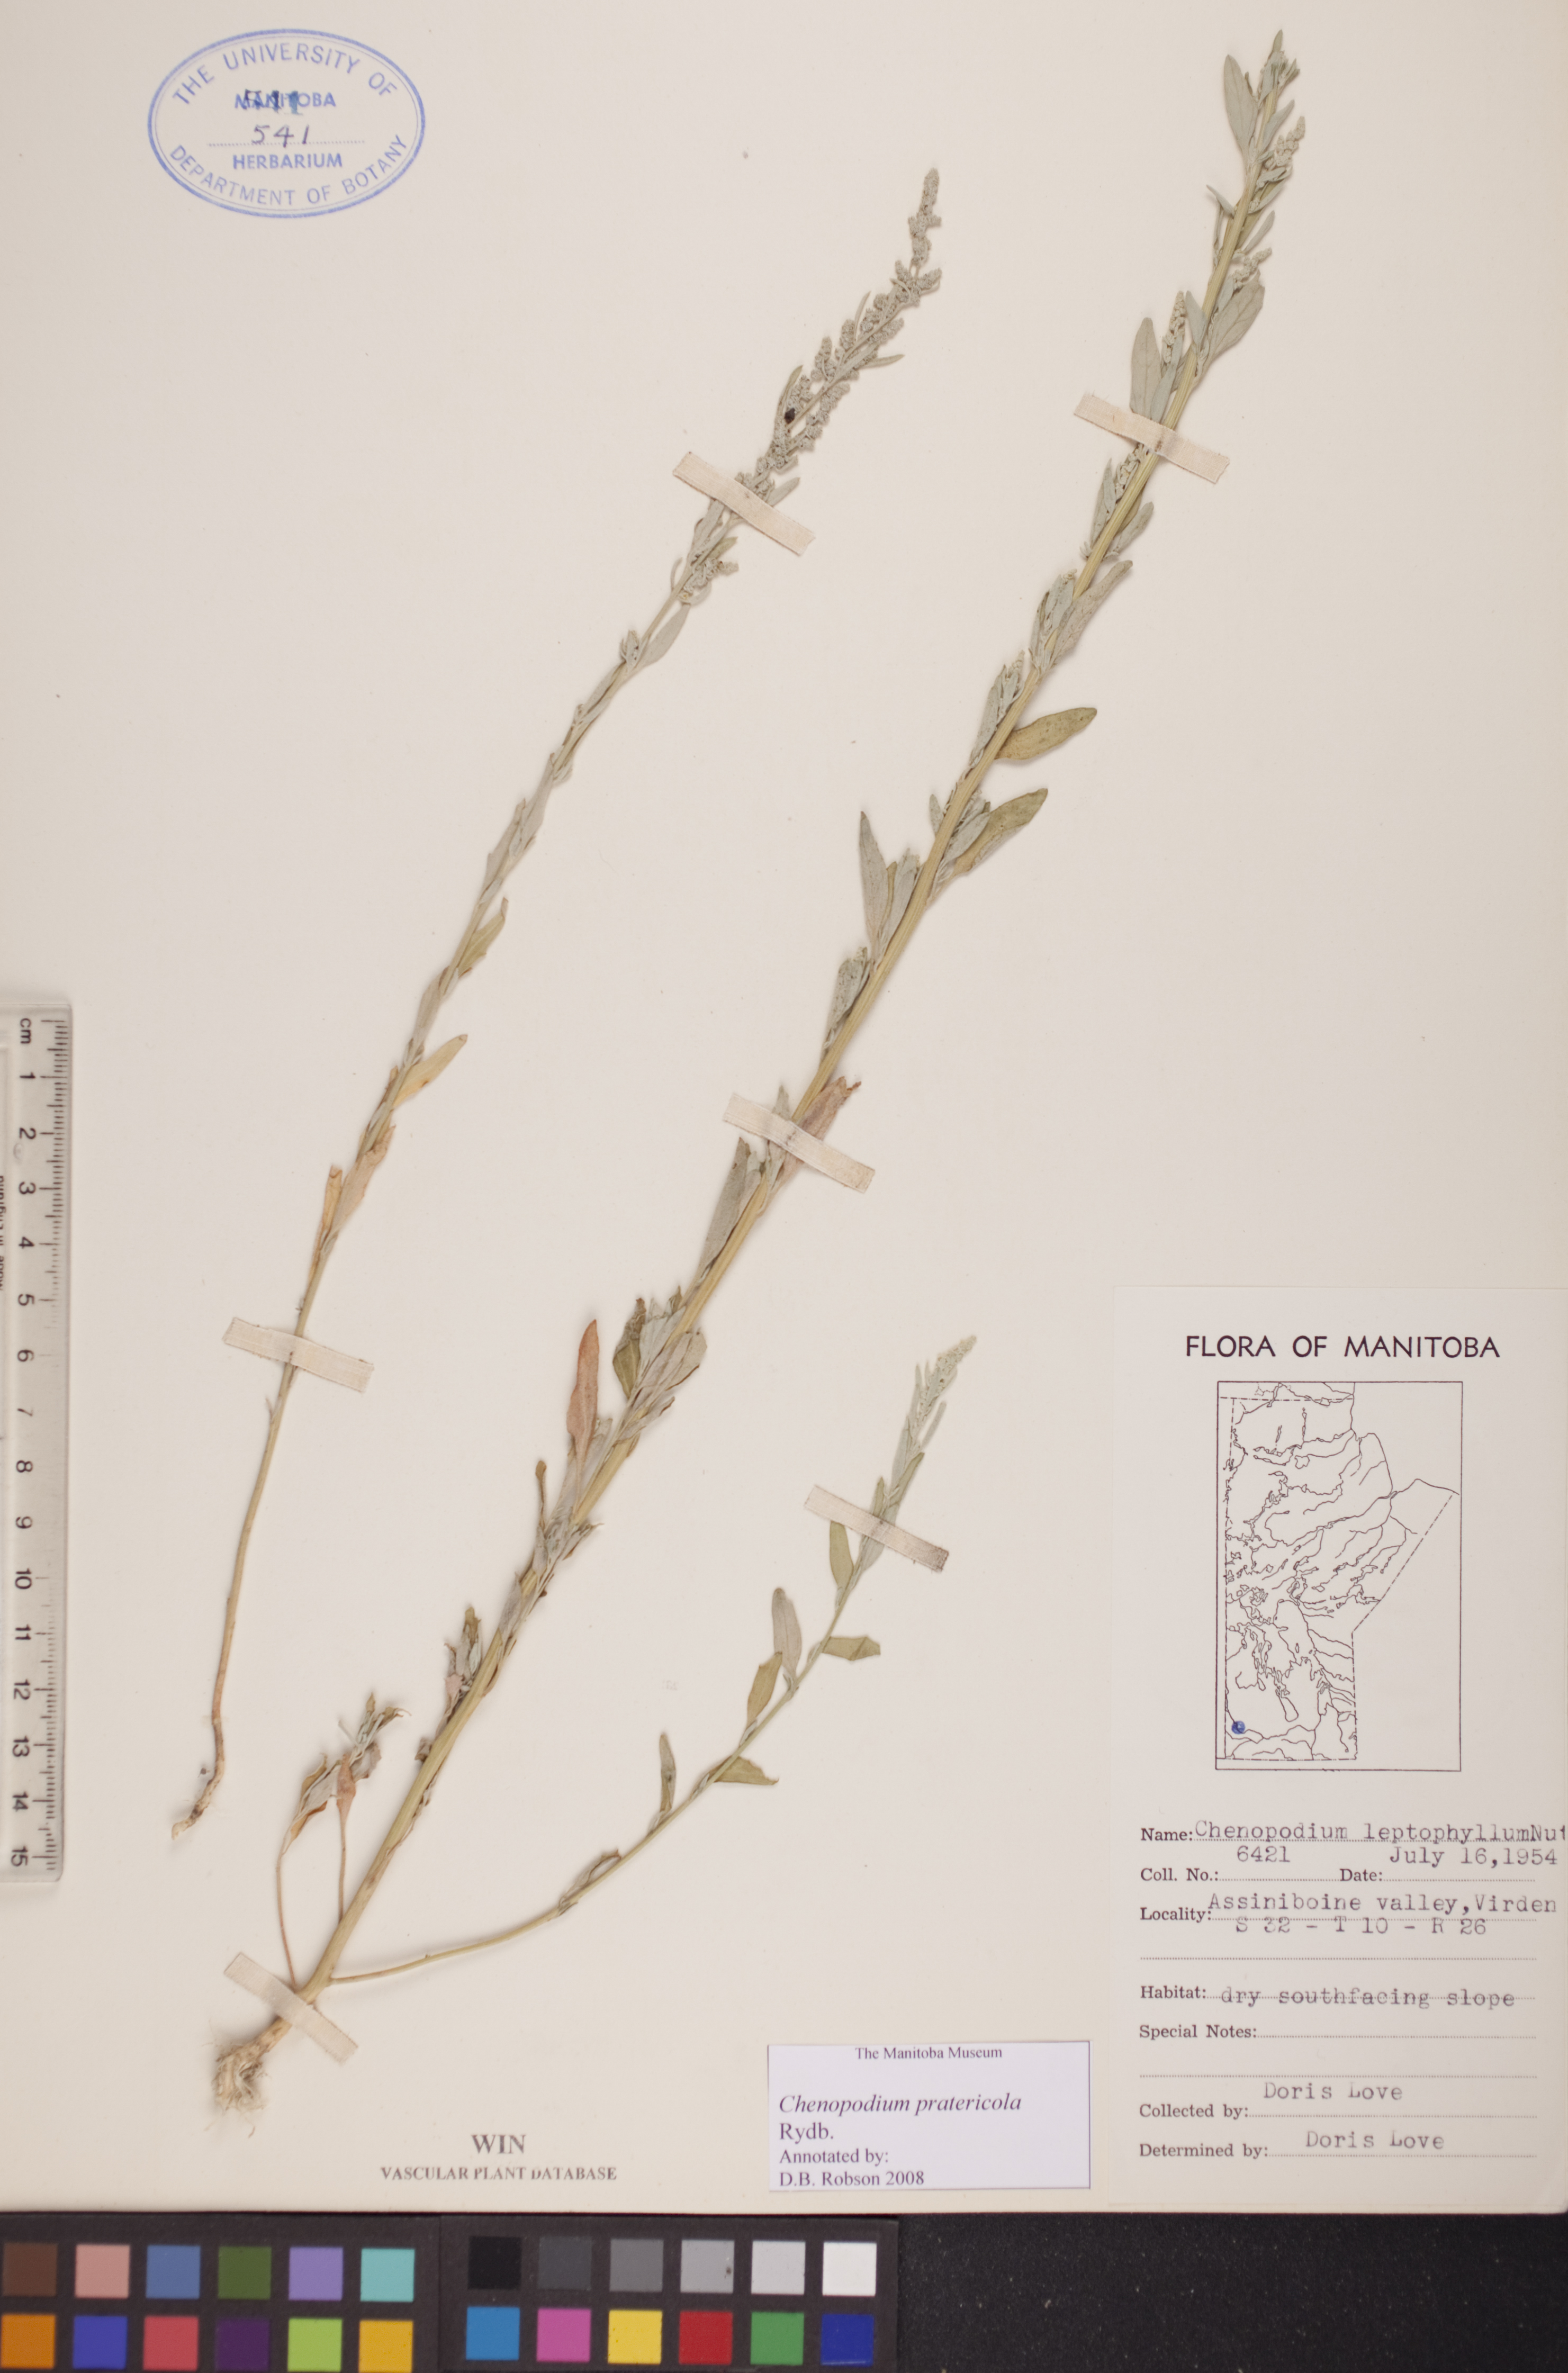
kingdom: Plantae
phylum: Tracheophyta
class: Magnoliopsida
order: Caryophyllales
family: Amaranthaceae
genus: Chenopodium
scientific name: Chenopodium pratericola
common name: Desert goosefoot
